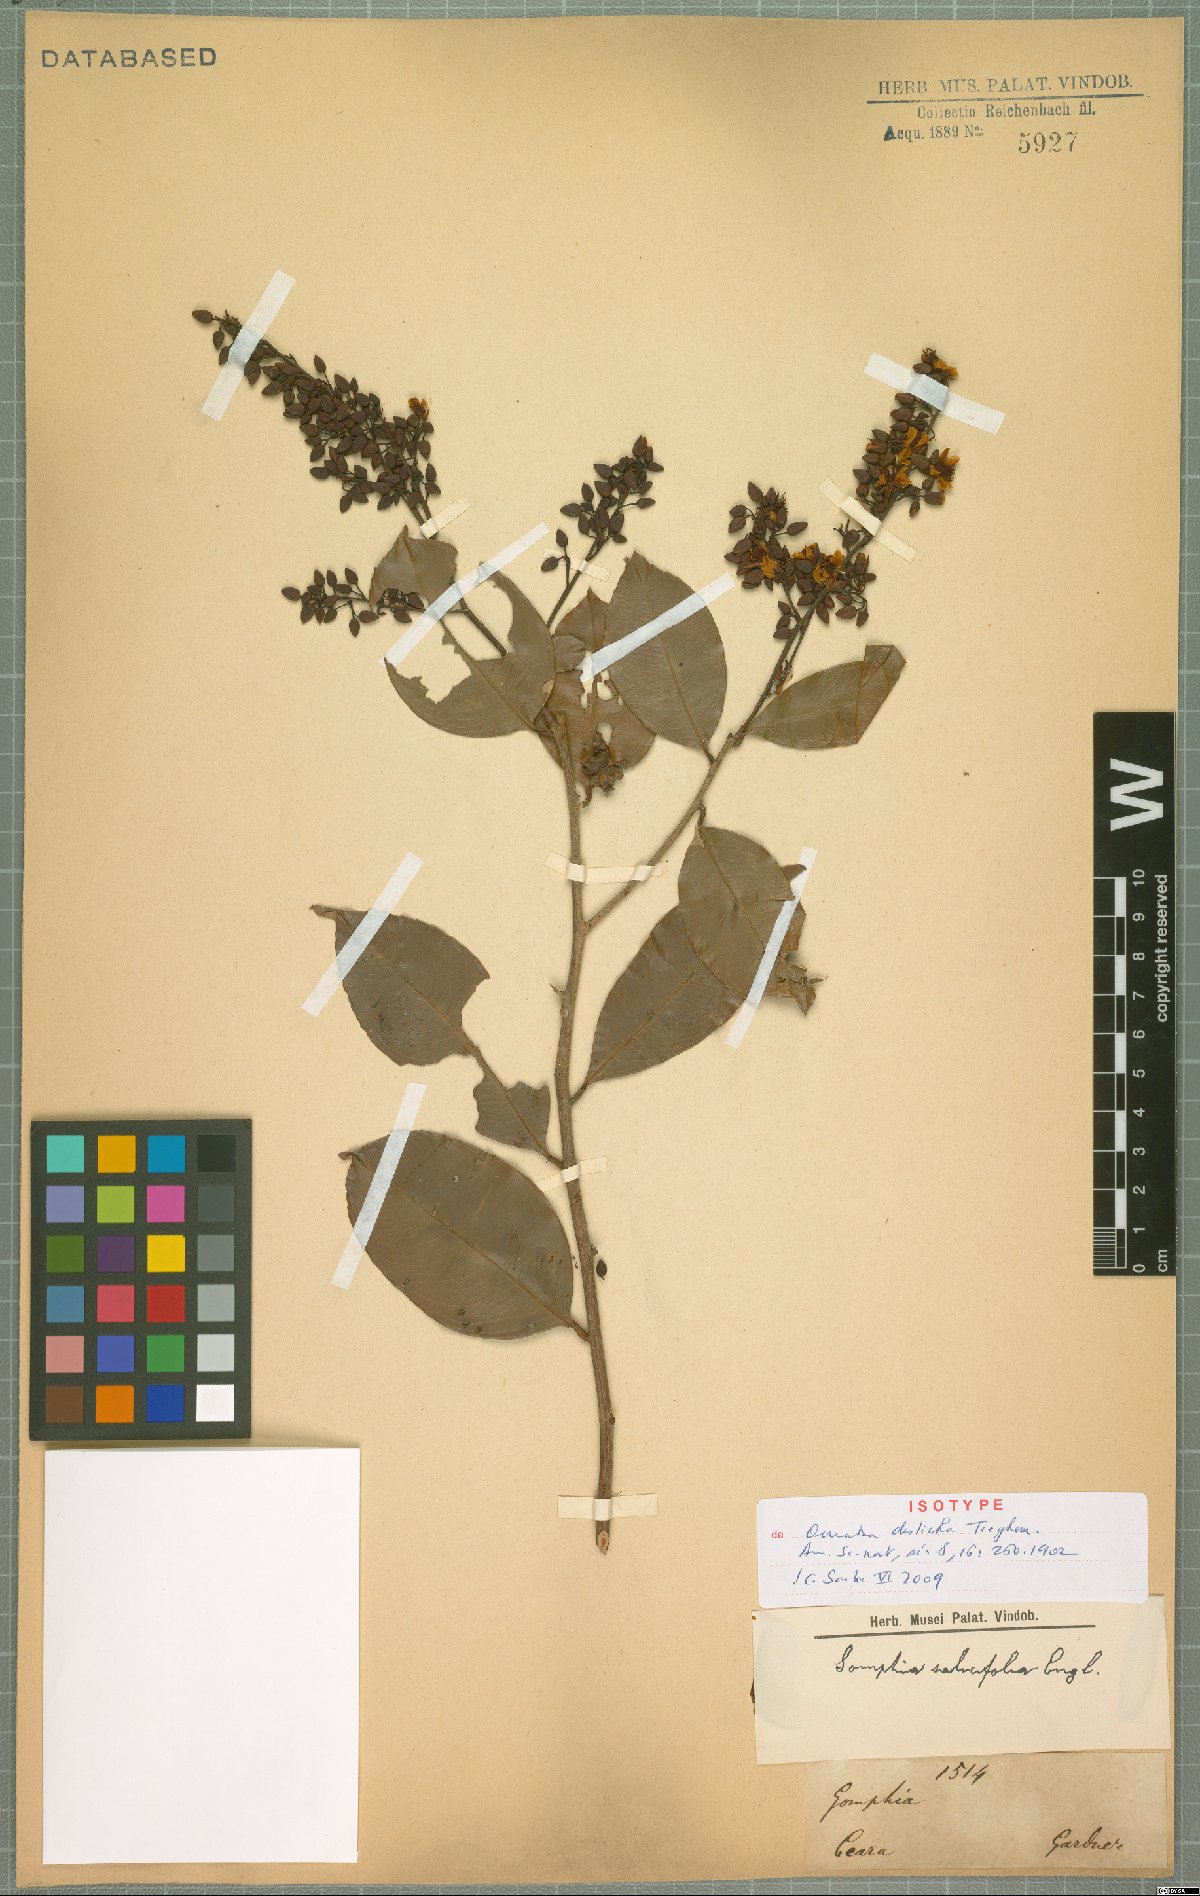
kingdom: Plantae
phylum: Tracheophyta
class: Magnoliopsida
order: Malpighiales
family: Ochnaceae
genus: Ouratea
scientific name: Ouratea disticha
